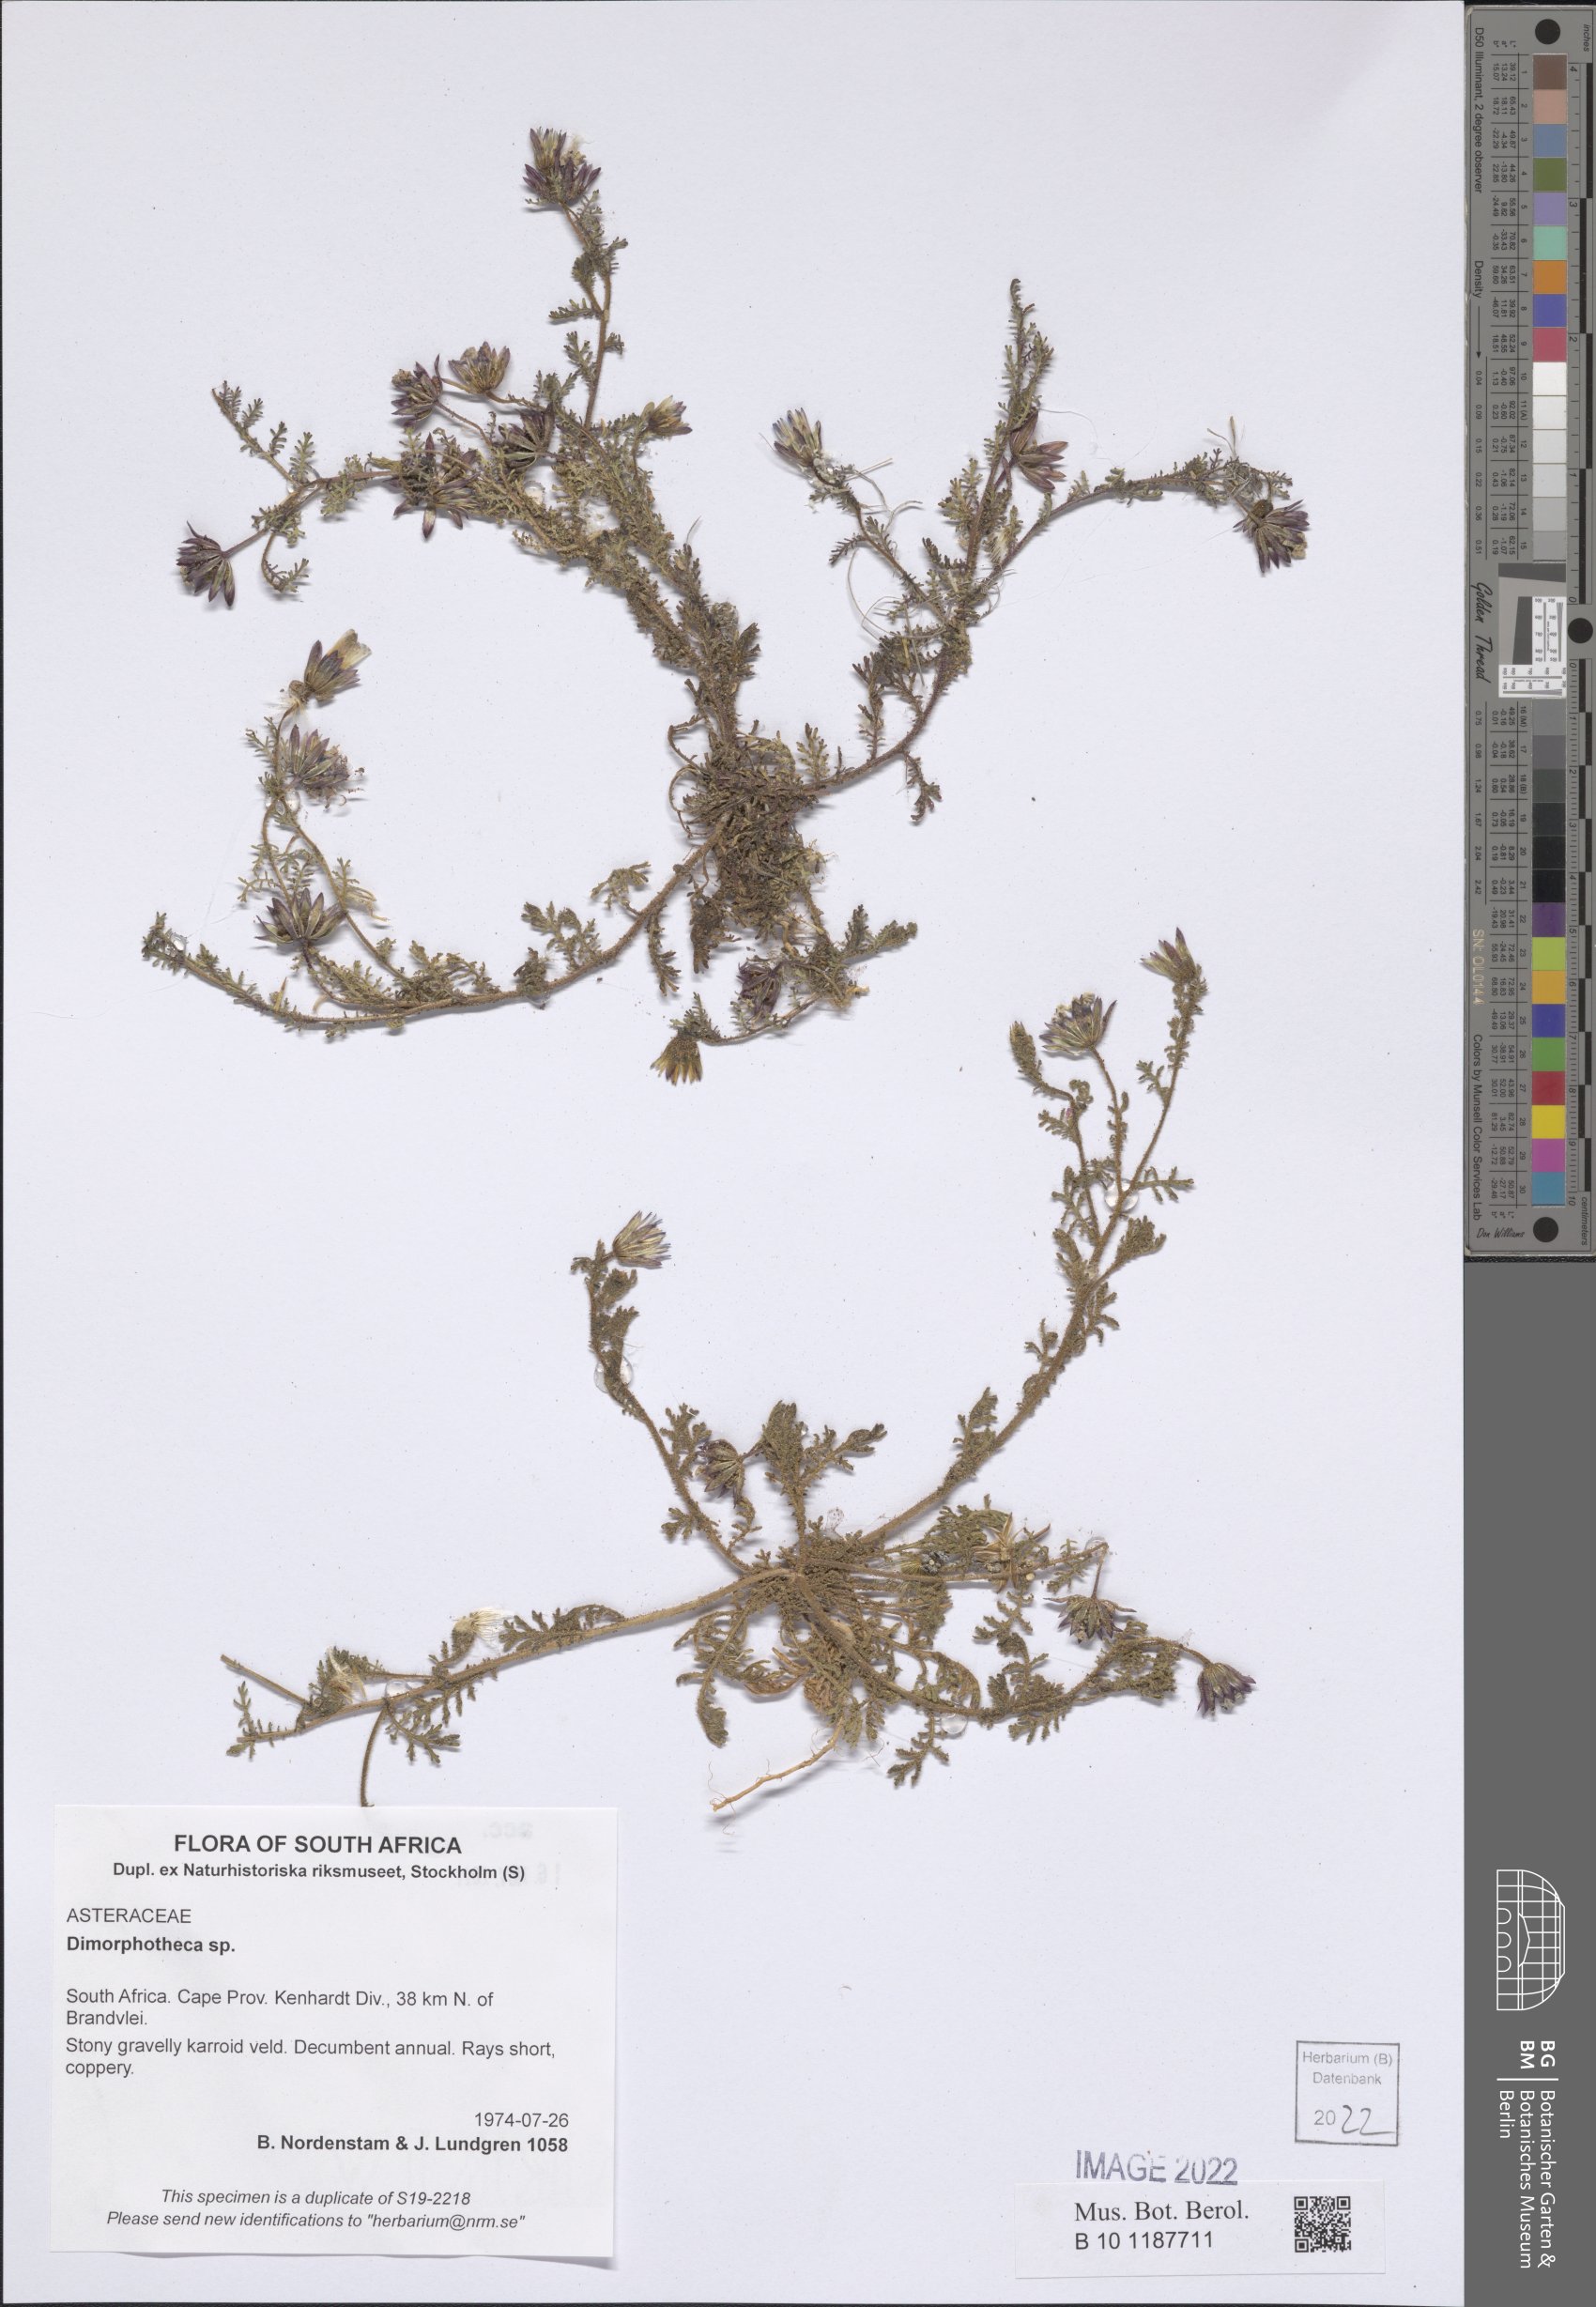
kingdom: Plantae
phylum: Tracheophyta
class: Magnoliopsida
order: Asterales
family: Asteraceae
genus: Dimorphotheca
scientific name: Dimorphotheca
